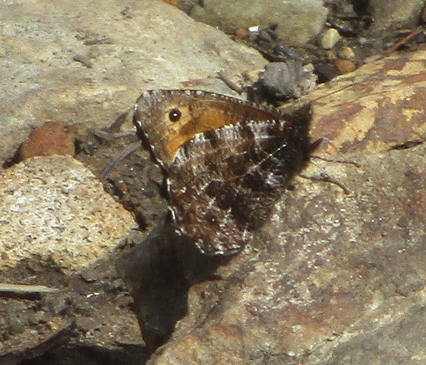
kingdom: Animalia
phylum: Arthropoda
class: Insecta
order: Lepidoptera
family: Nymphalidae
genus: Oeneis
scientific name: Oeneis nevadensis
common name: Great Arctic
